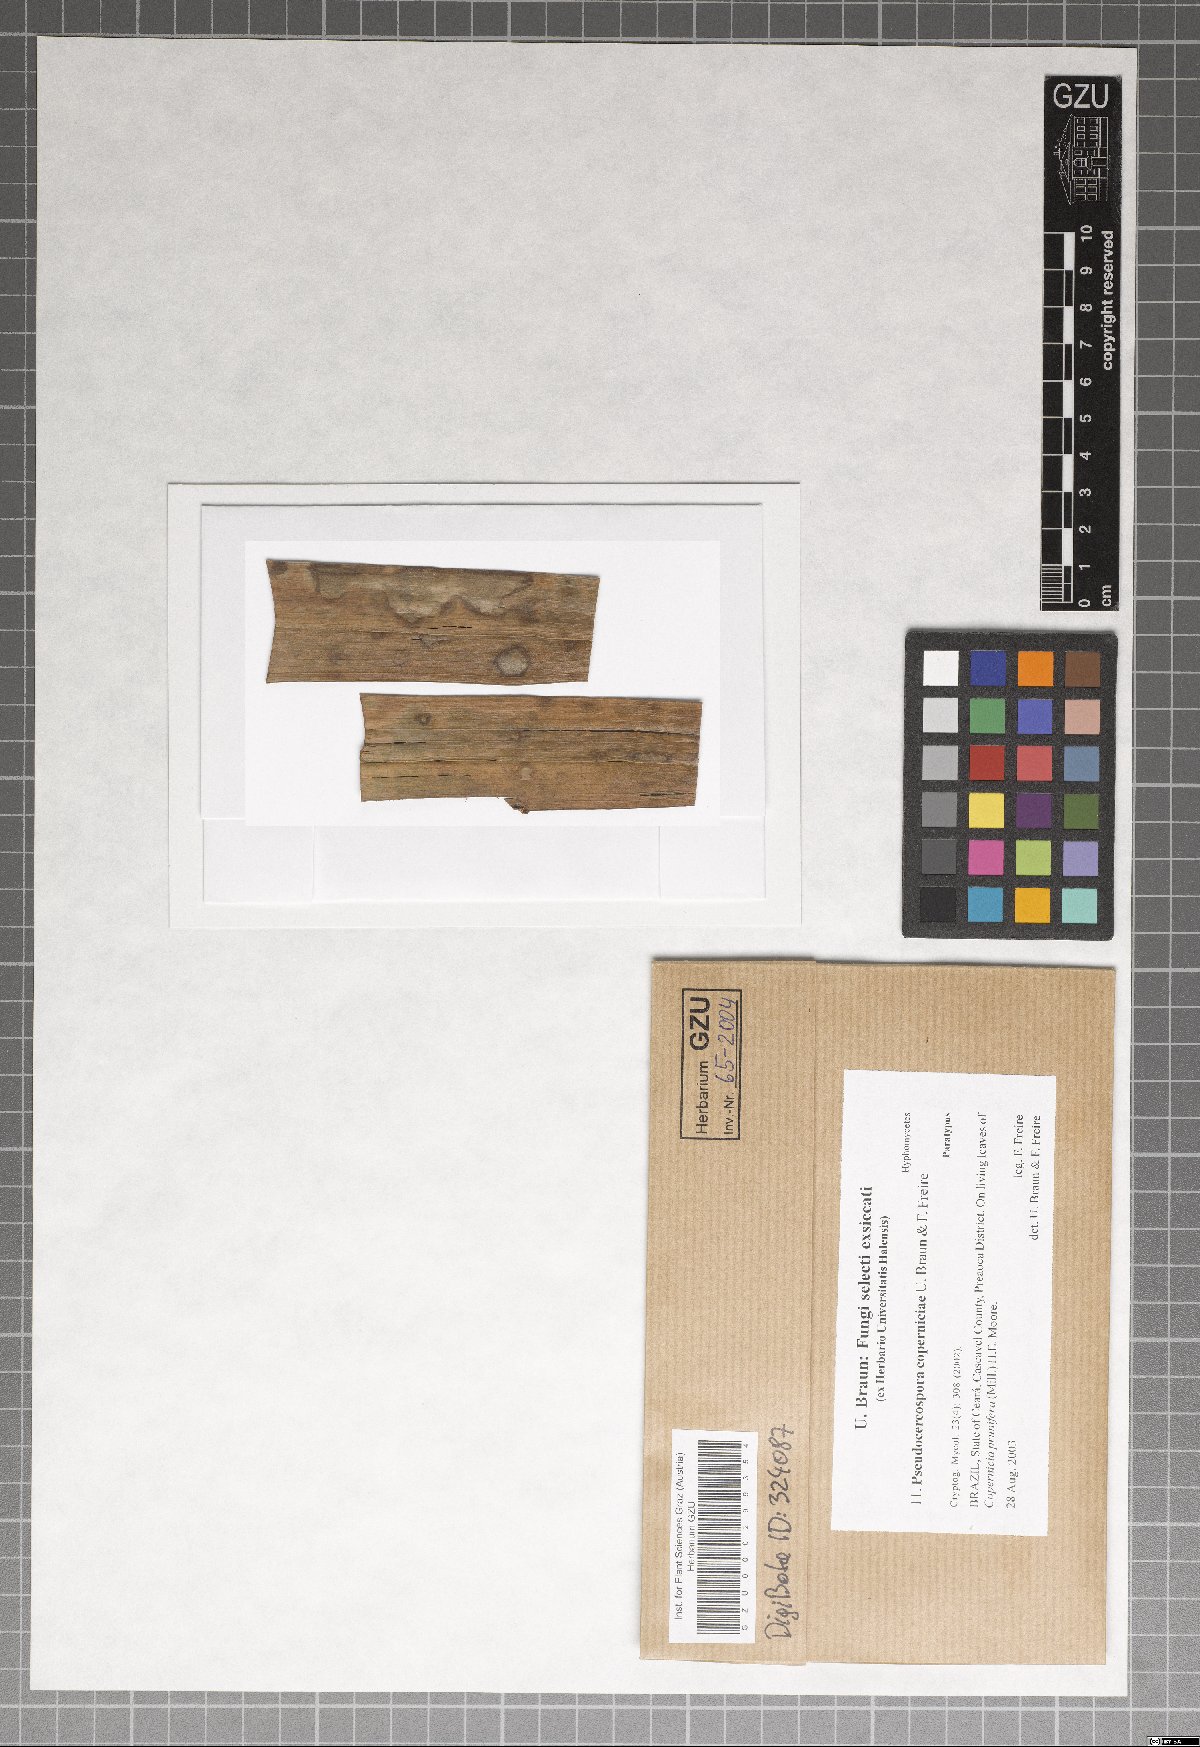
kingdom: Fungi
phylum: Ascomycota
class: Dothideomycetes
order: Mycosphaerellales
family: Mycosphaerellaceae
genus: Pseudocercospora
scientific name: Pseudocercospora coperniciae
